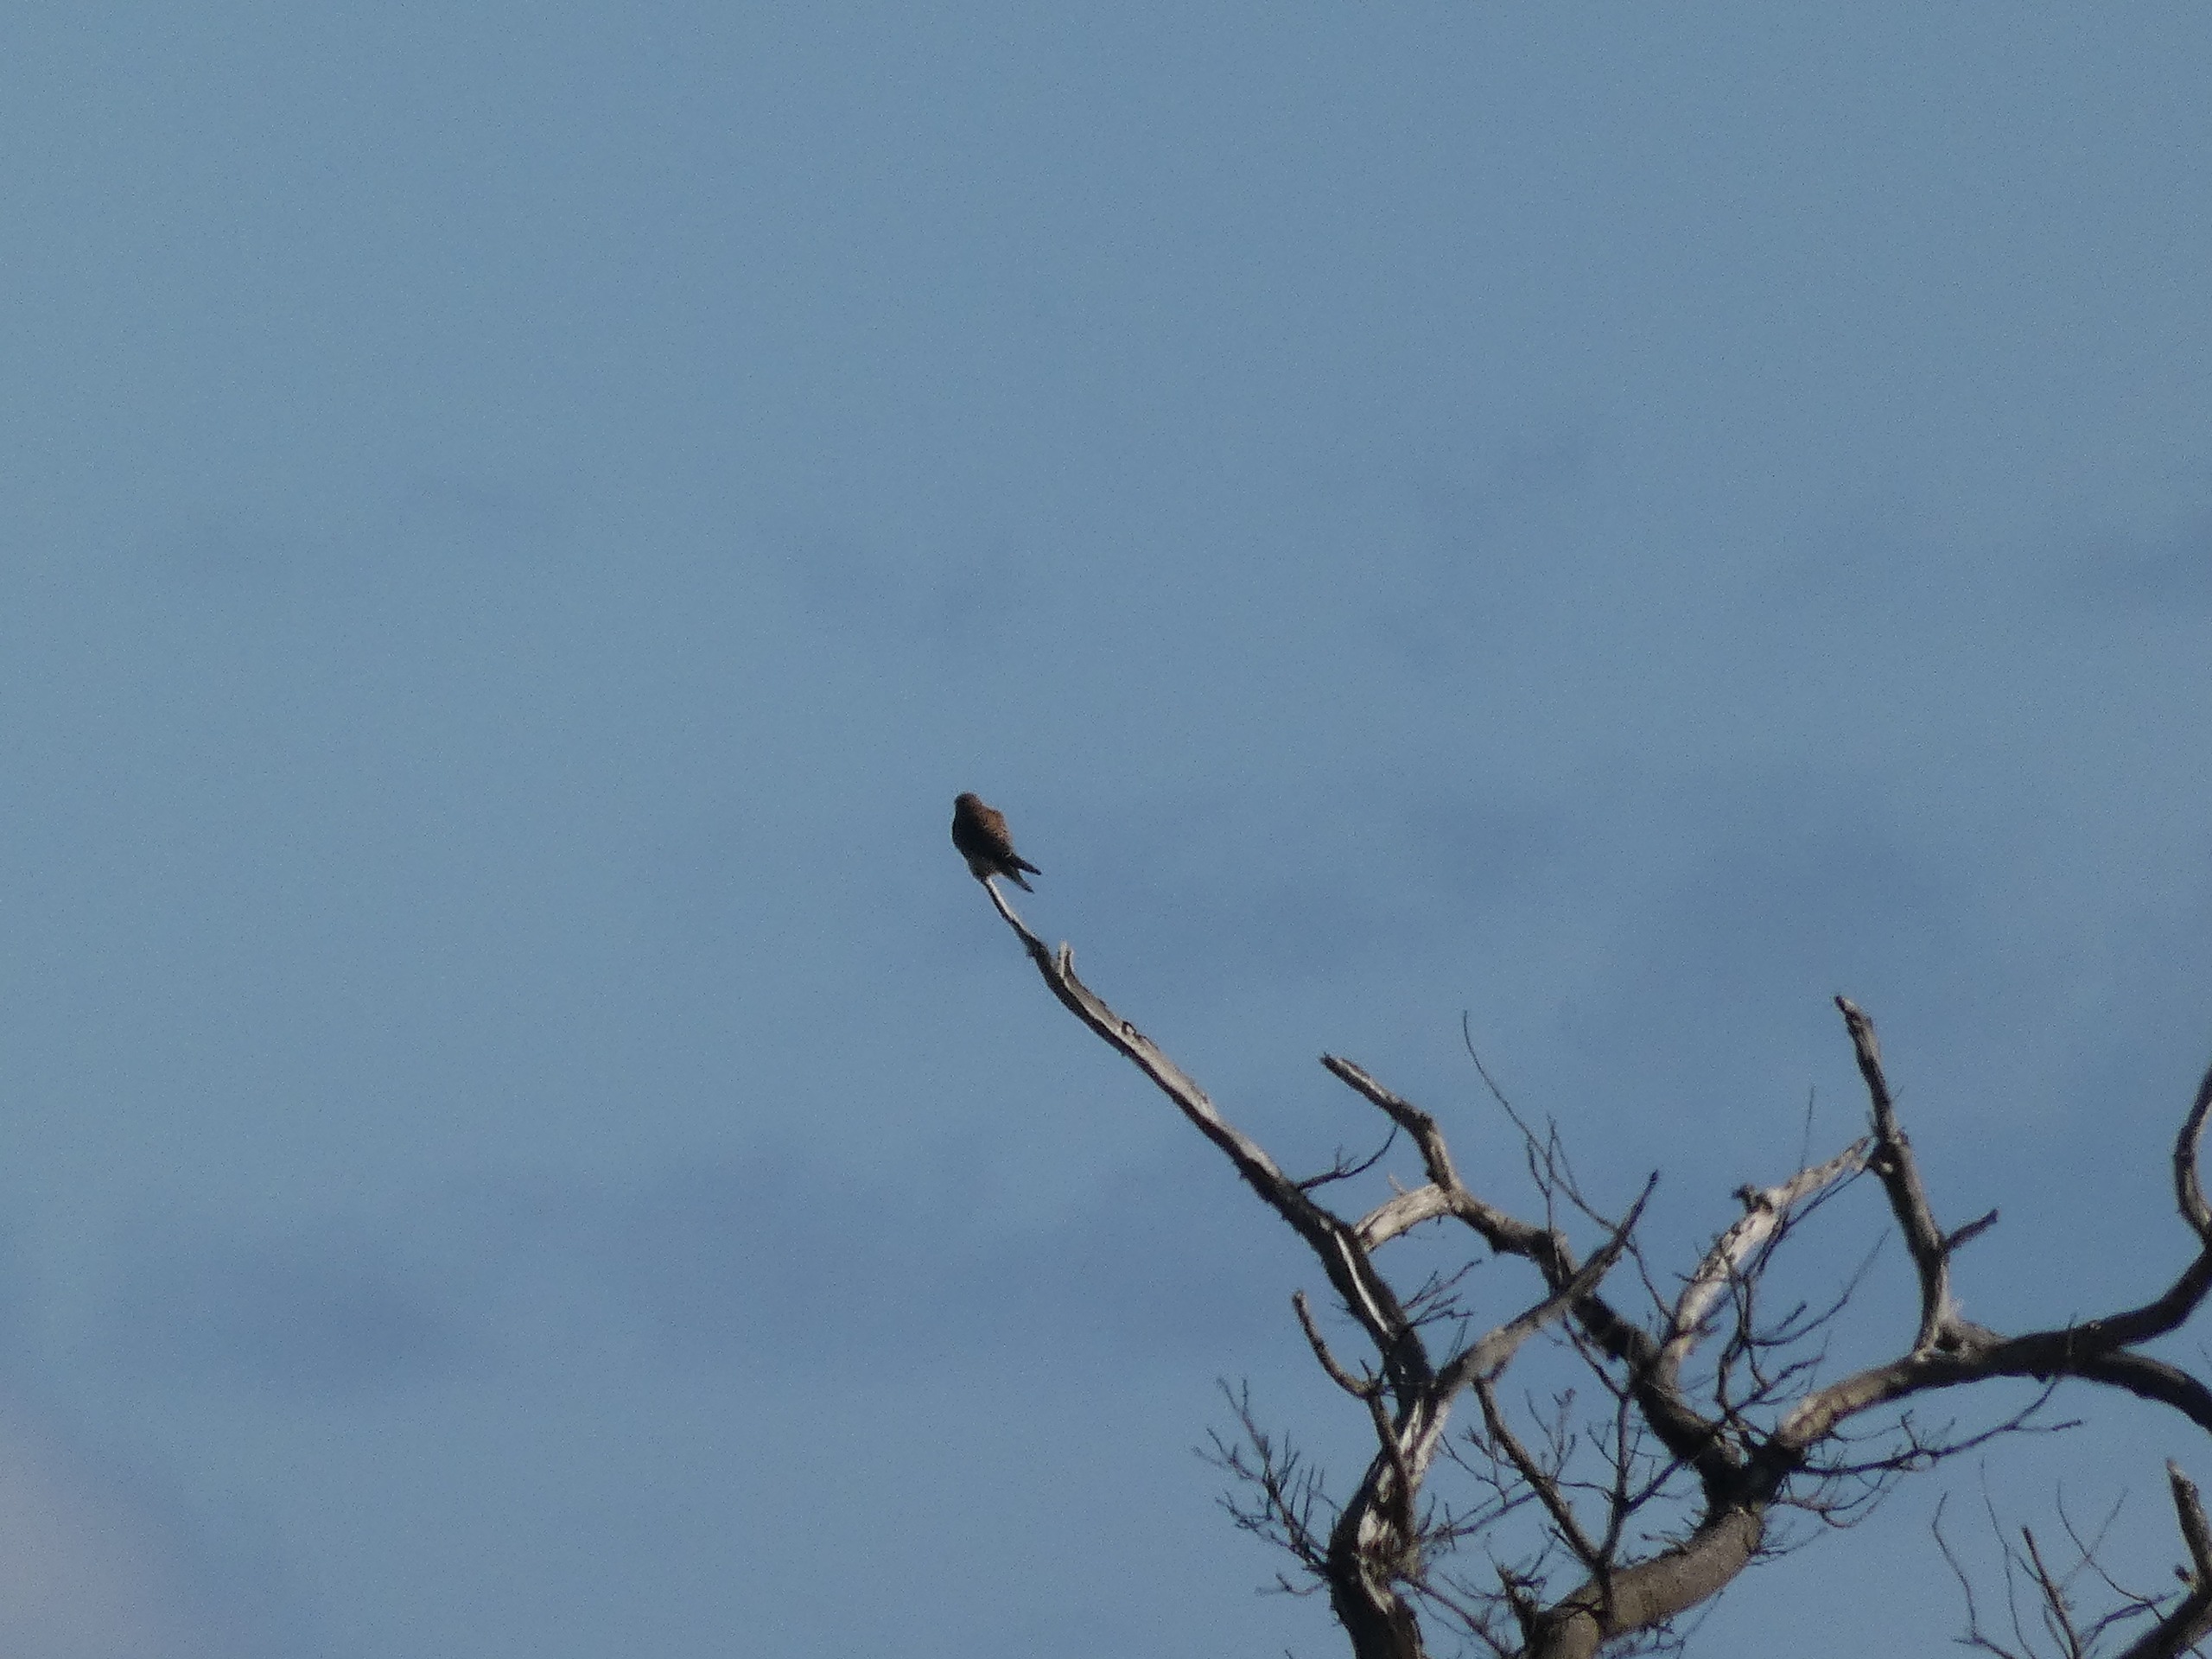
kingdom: Animalia
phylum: Chordata
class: Aves
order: Falconiformes
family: Falconidae
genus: Falco
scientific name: Falco tinnunculus
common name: Tårnfalk
